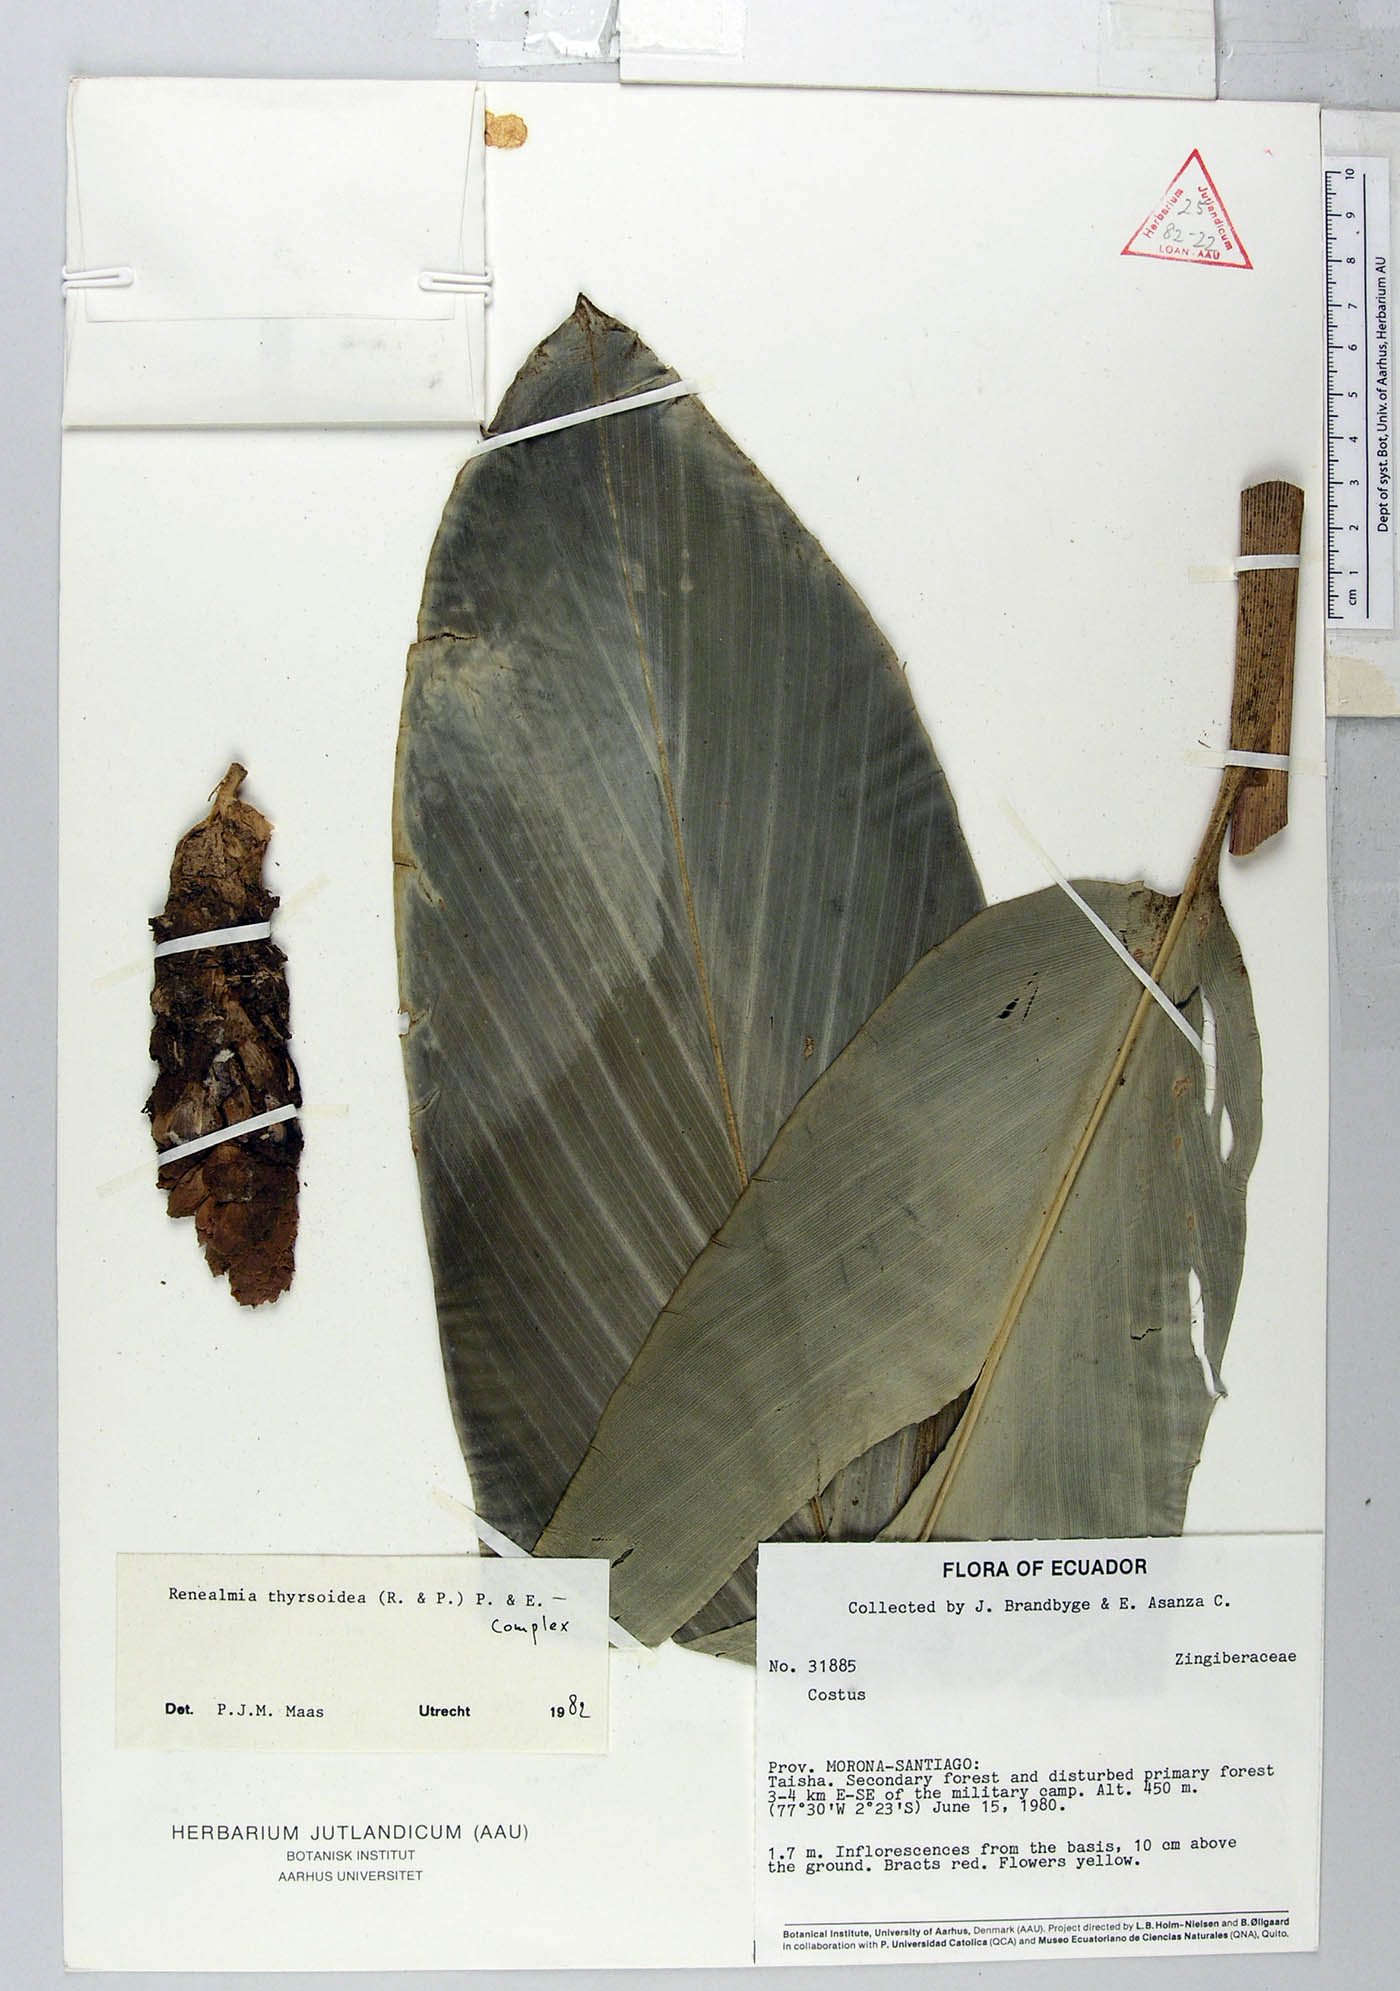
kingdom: Plantae
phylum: Tracheophyta
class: Liliopsida
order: Zingiberales
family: Zingiberaceae
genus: Renealmia
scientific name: Renealmia thyrsoidea
